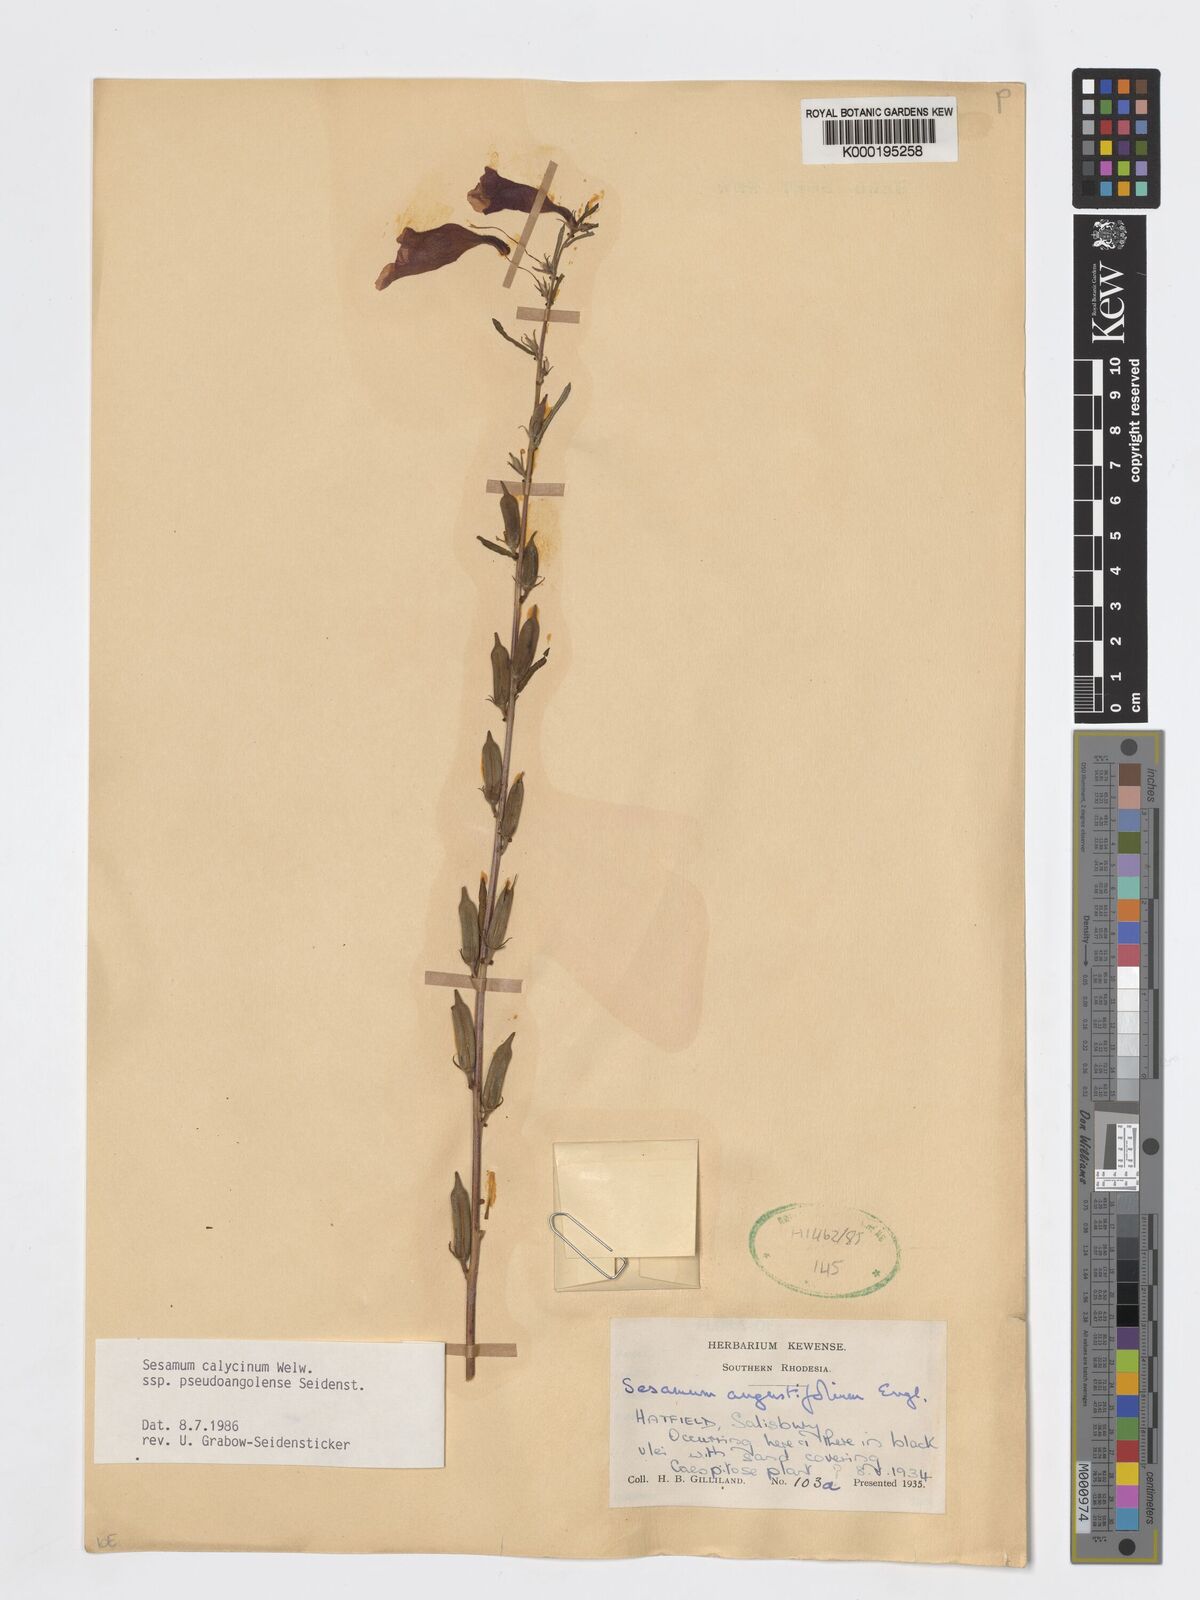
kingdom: Plantae
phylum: Tracheophyta
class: Magnoliopsida
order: Lamiales
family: Pedaliaceae
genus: Sesamum
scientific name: Sesamum calycinum
